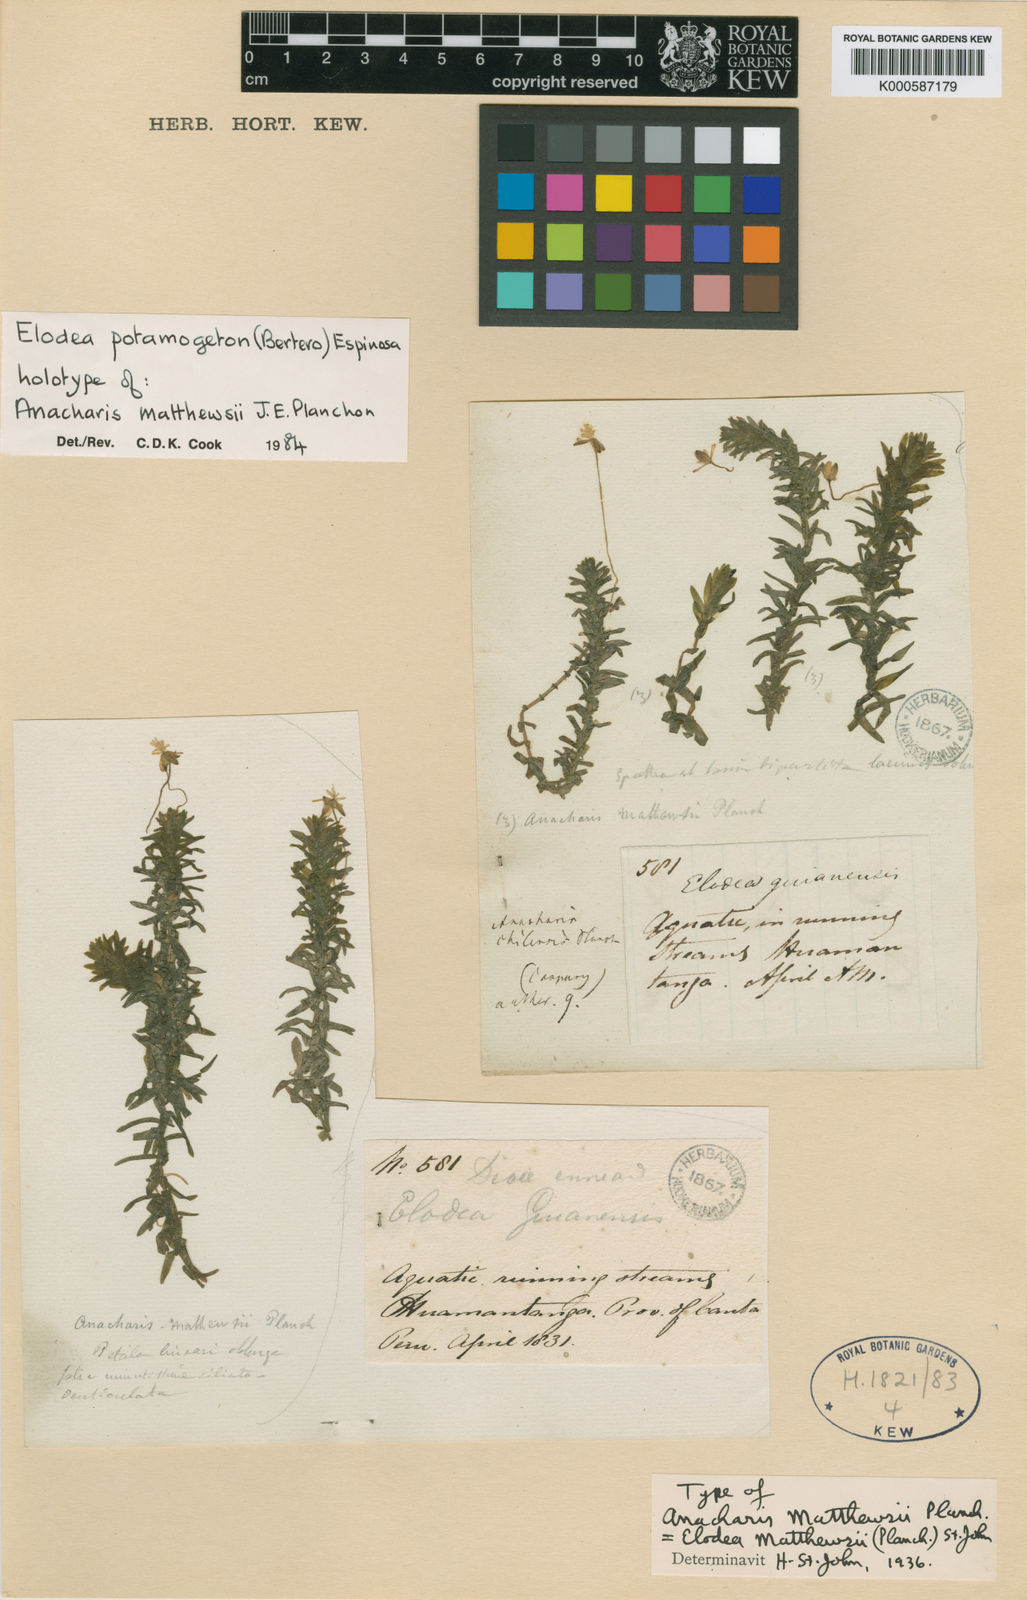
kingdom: Plantae
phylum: Tracheophyta
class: Liliopsida
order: Alismatales
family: Hydrocharitaceae
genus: Elodea
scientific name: Elodea potamogeton
